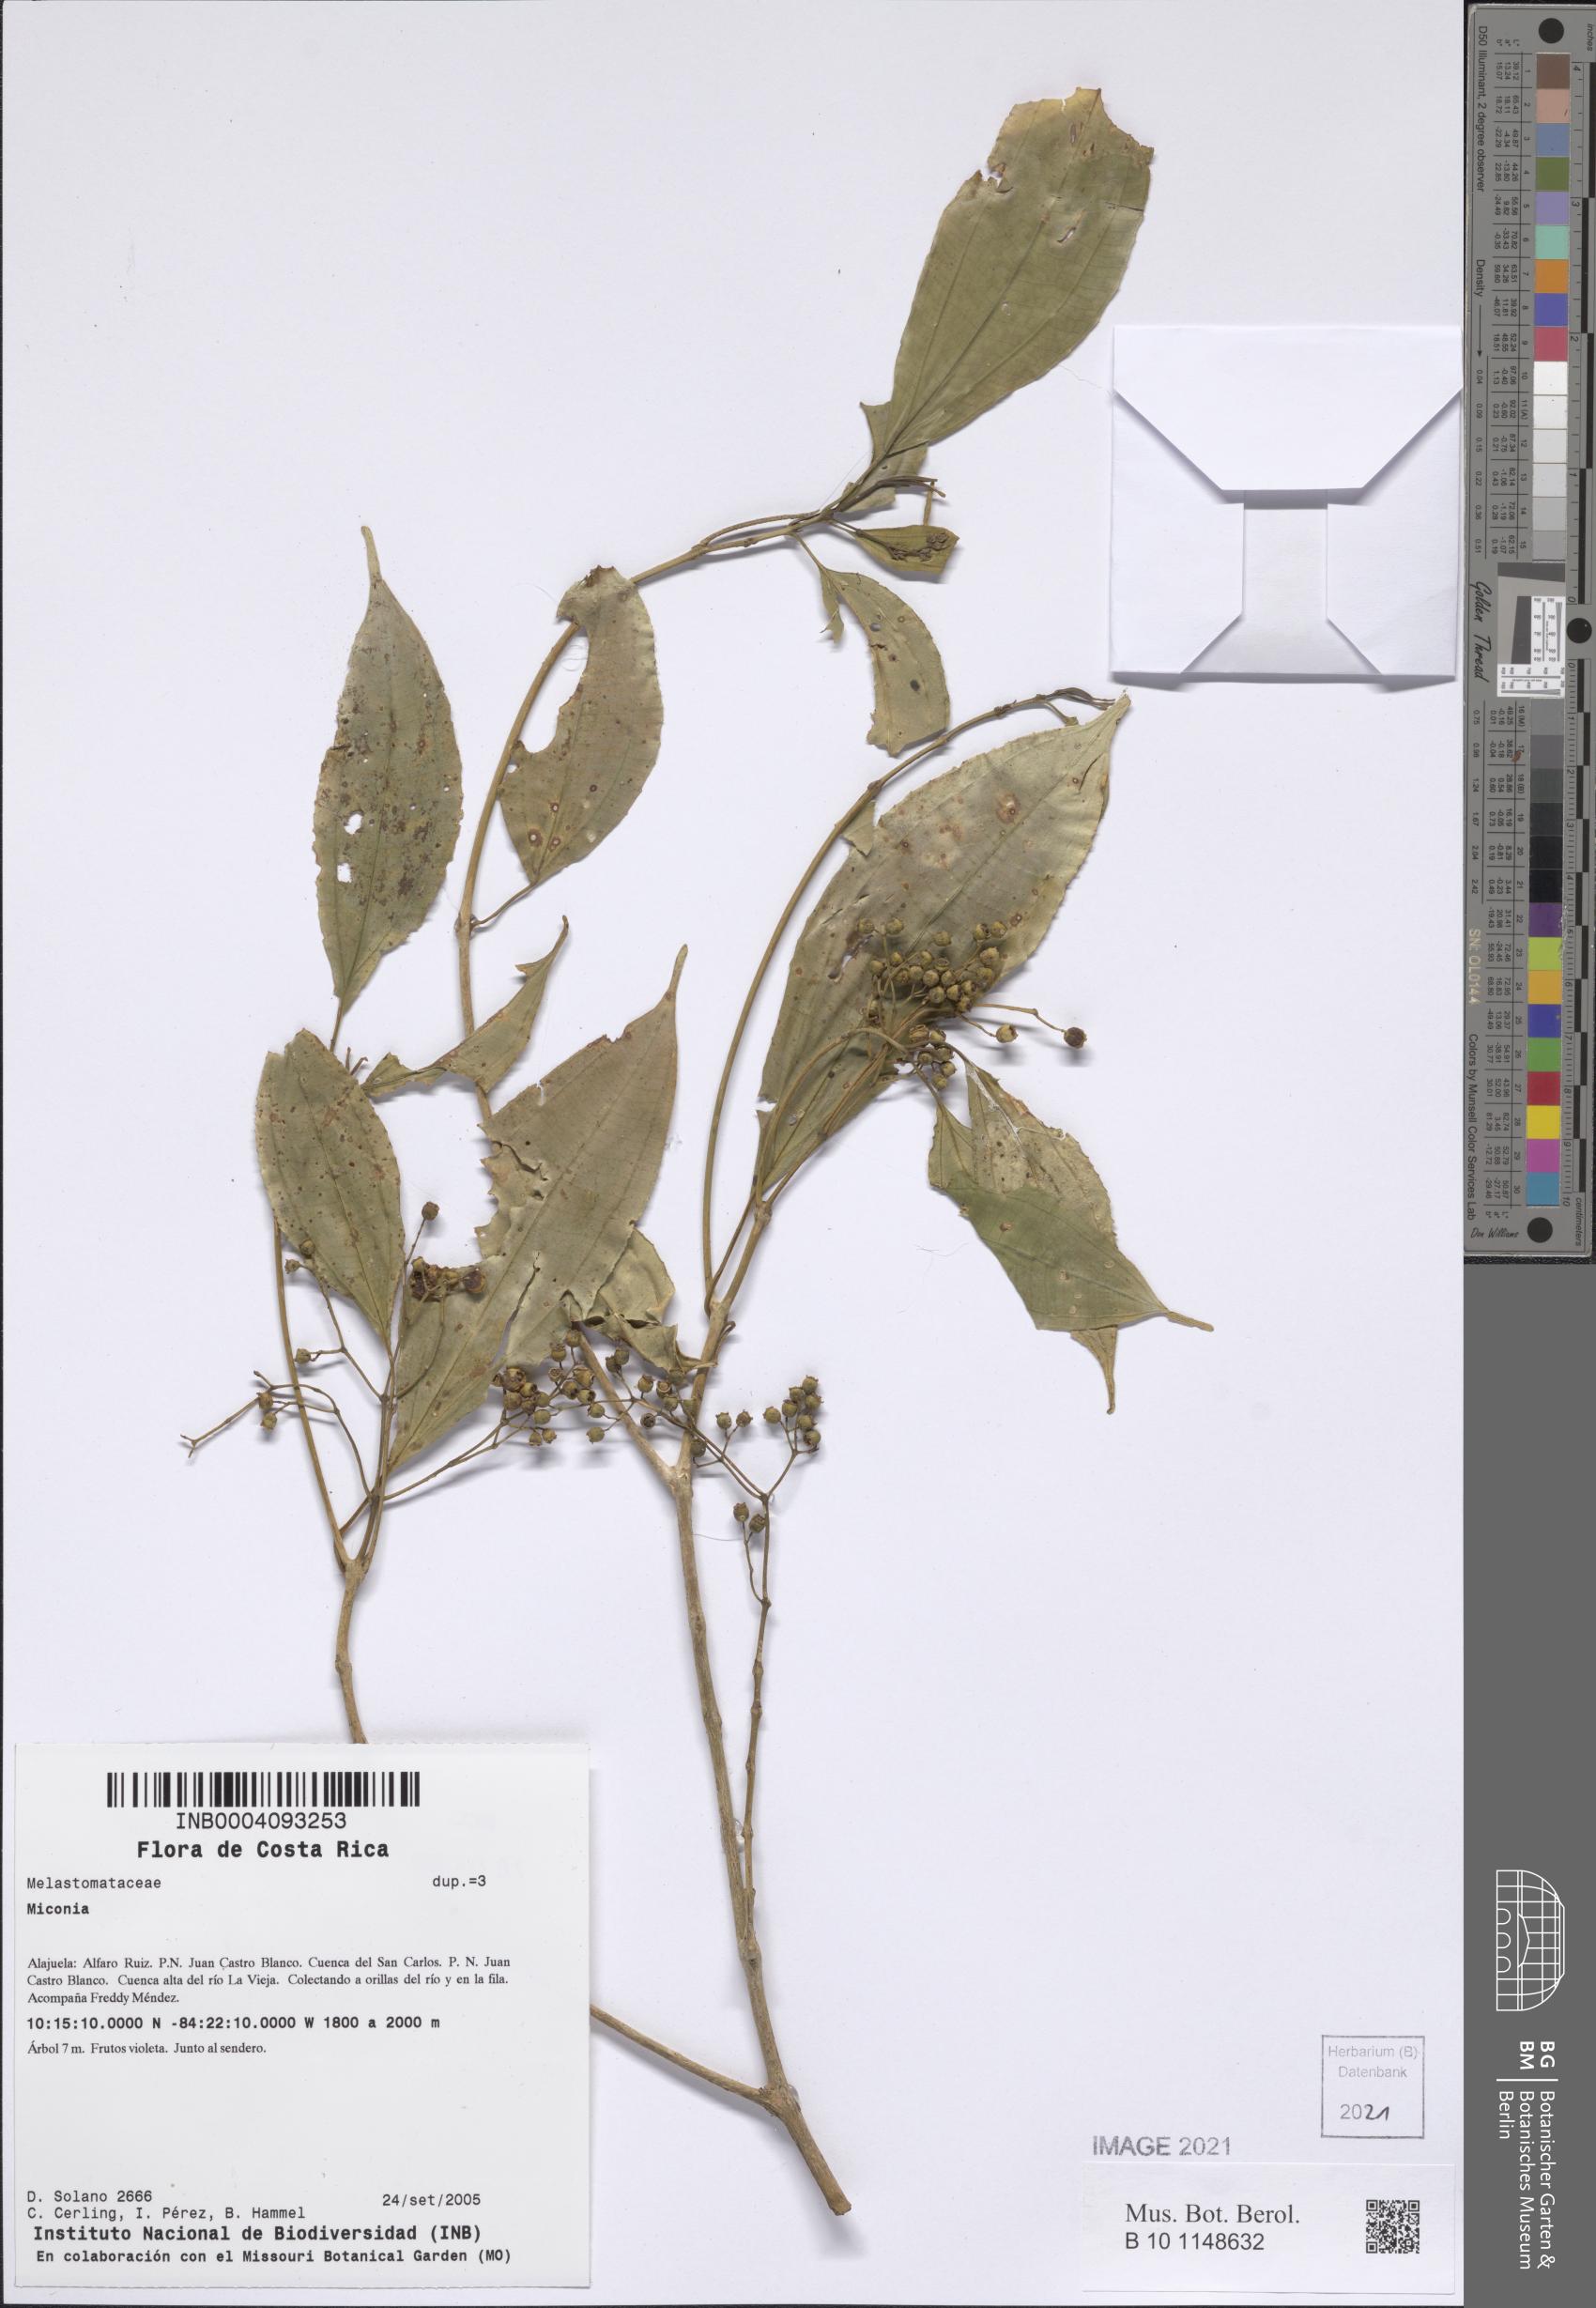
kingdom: Plantae
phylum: Tracheophyta
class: Magnoliopsida
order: Myrtales
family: Melastomataceae
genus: Miconia
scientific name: Miconia
